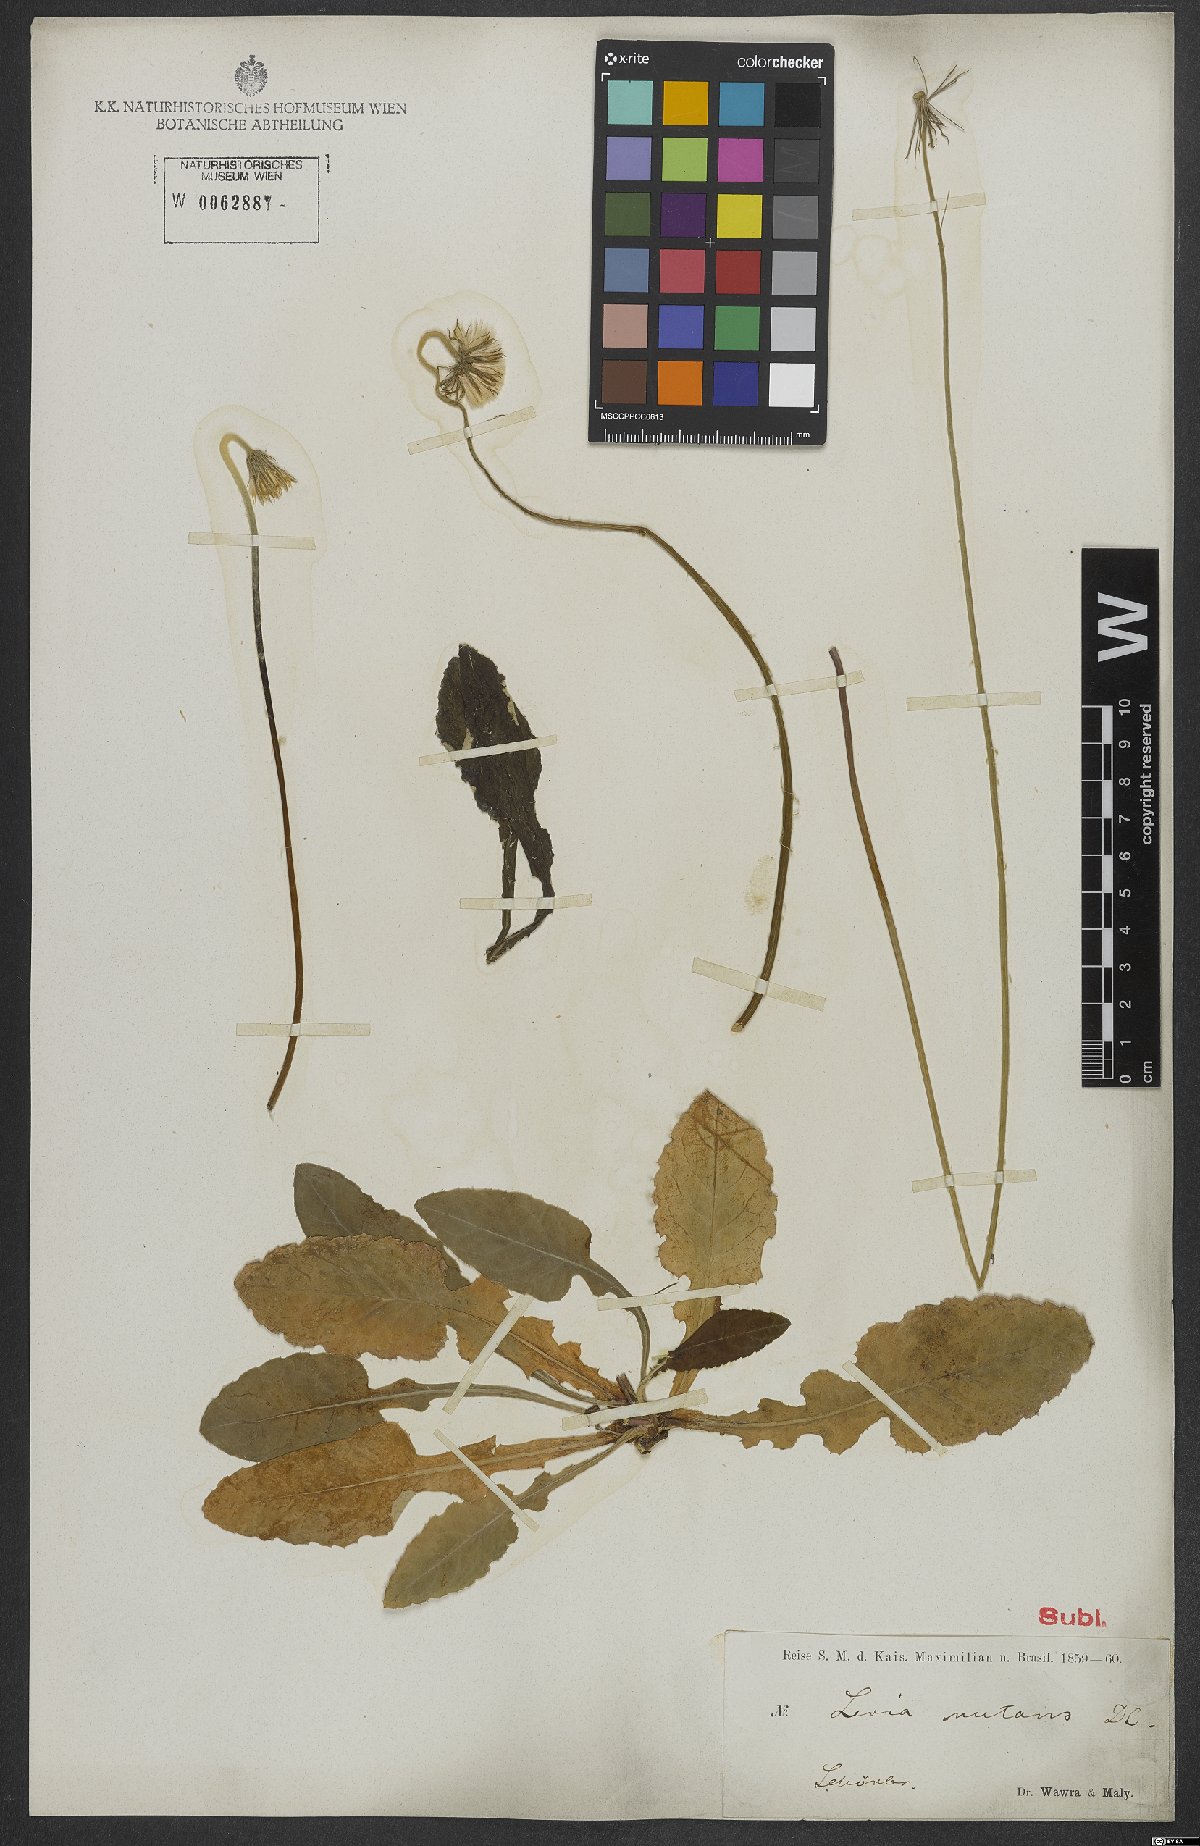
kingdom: Plantae
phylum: Tracheophyta
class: Magnoliopsida
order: Asterales
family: Asteraceae
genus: Chaptalia
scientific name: Chaptalia nutans
